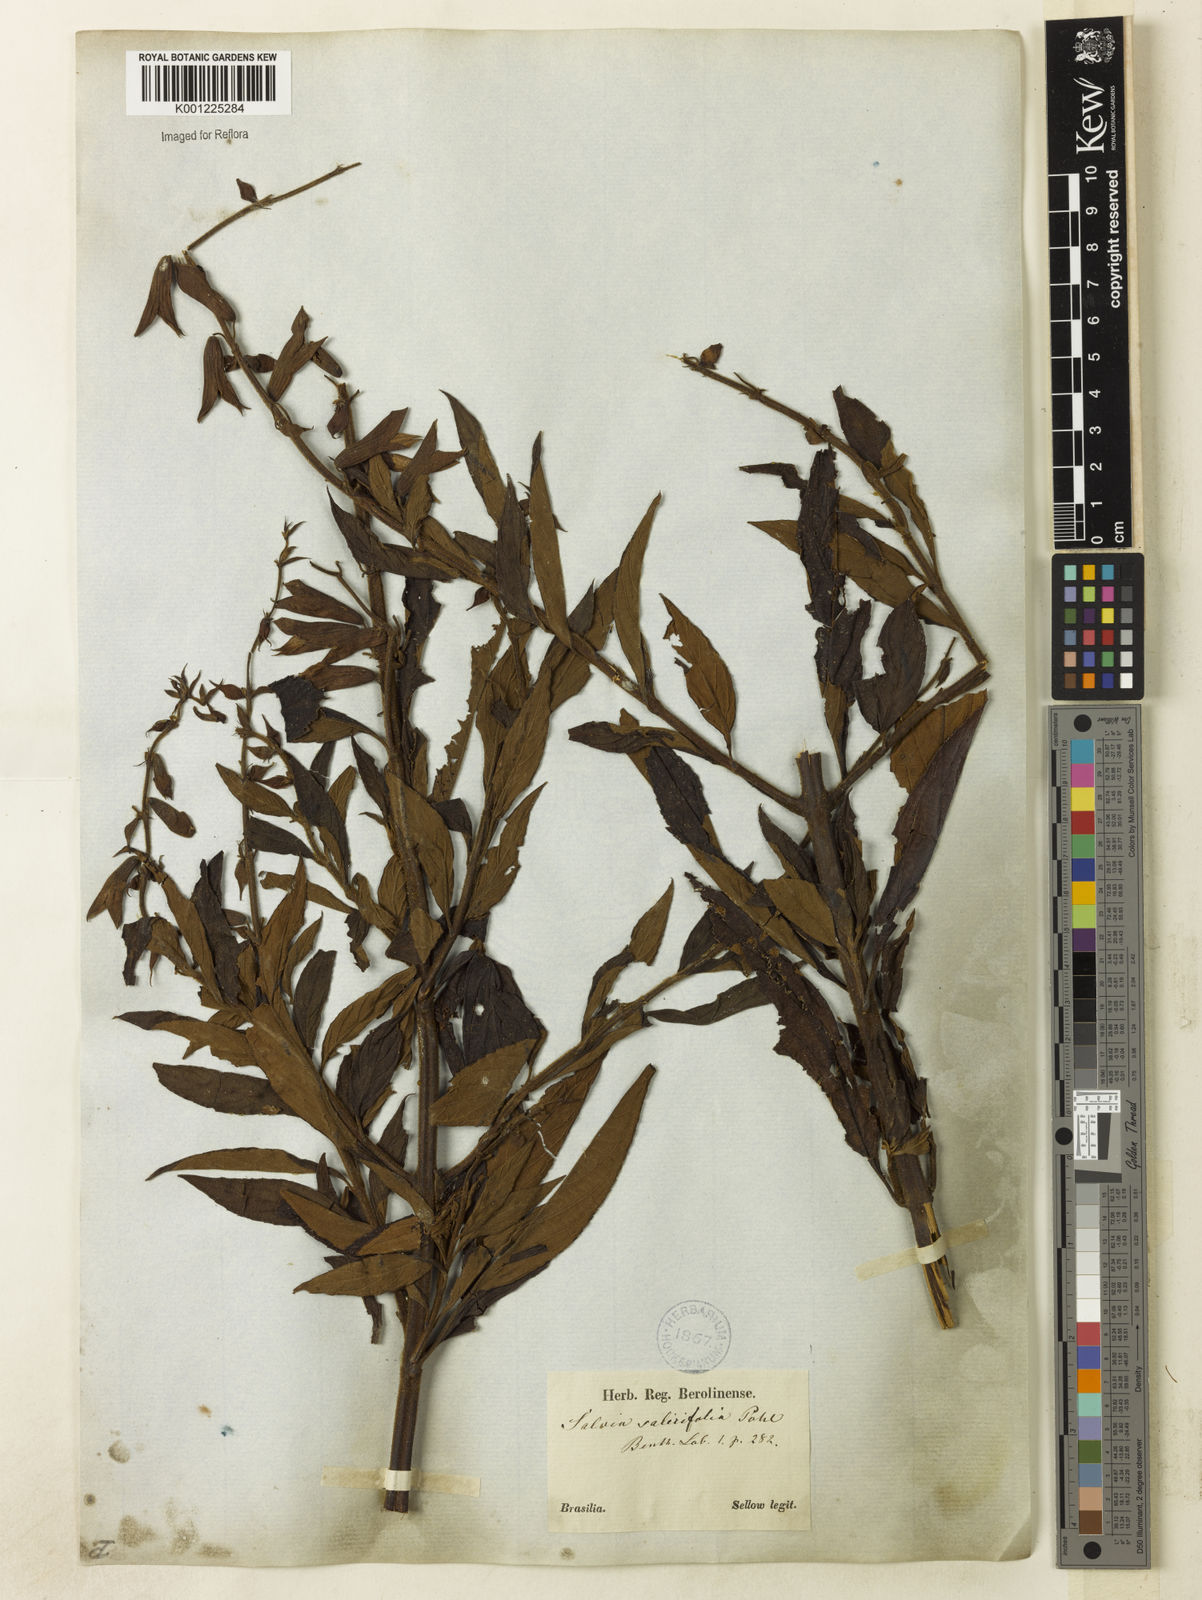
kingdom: Plantae
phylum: Tracheophyta
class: Magnoliopsida
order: Lamiales
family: Lamiaceae
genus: Salvia
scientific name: Salvia salicifolia
